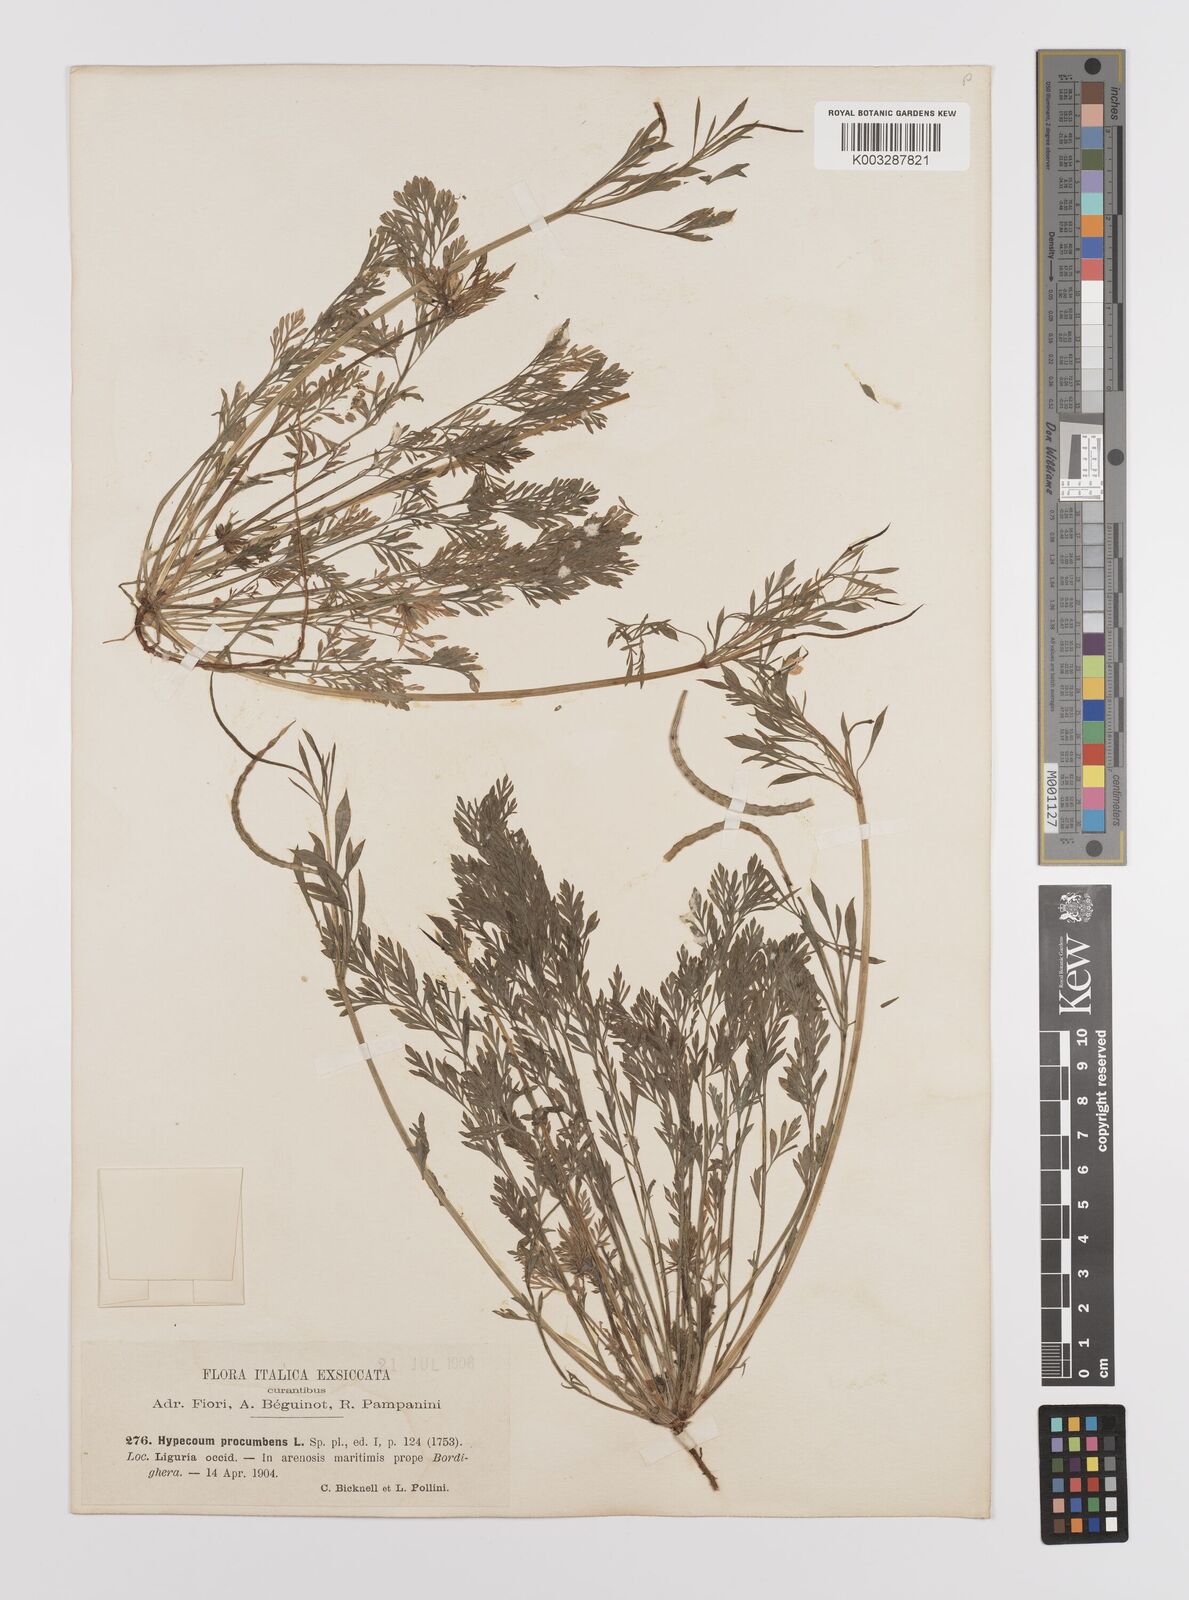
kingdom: Plantae
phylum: Tracheophyta
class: Magnoliopsida
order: Ranunculales
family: Papaveraceae
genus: Hypecoum
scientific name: Hypecoum imberbe
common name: Sicklefruit hypecoum
